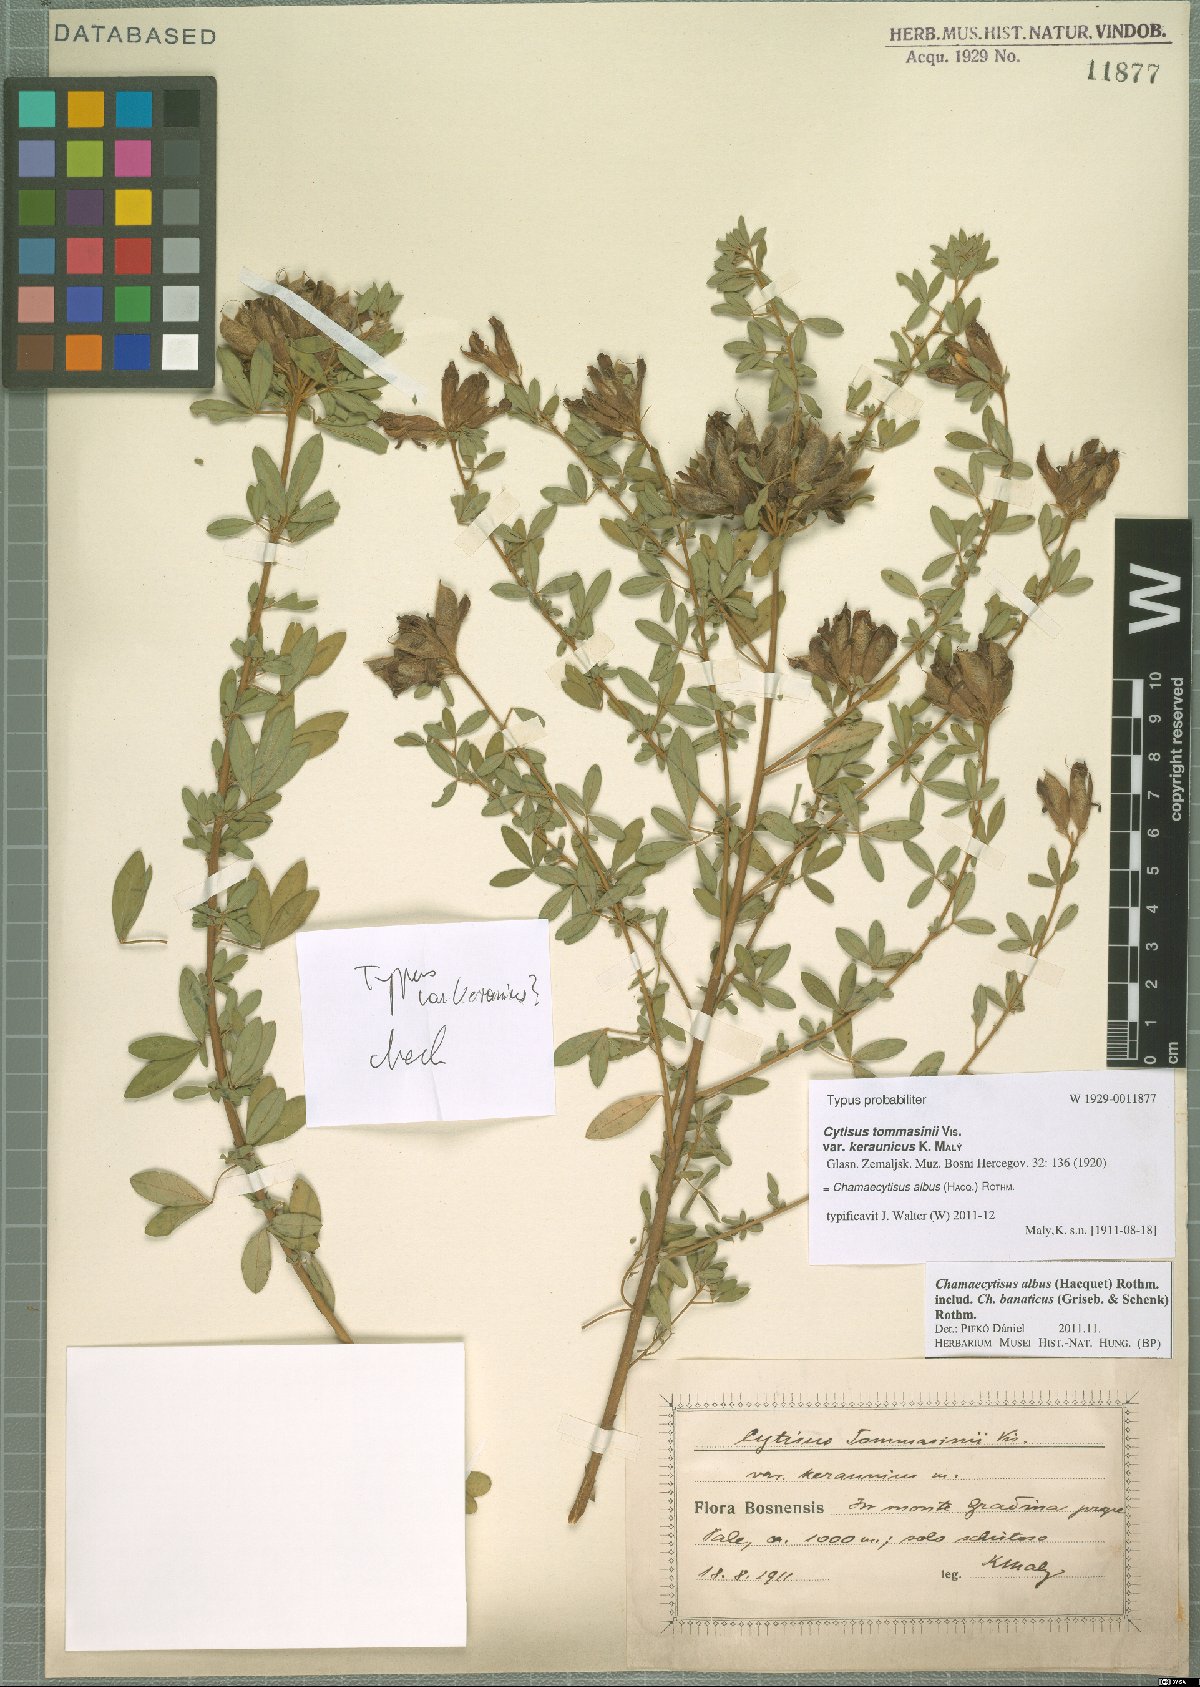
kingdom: Plantae
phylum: Tracheophyta
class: Magnoliopsida
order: Fabales
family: Fabaceae
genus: Chamaecytisus
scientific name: Chamaecytisus albus
